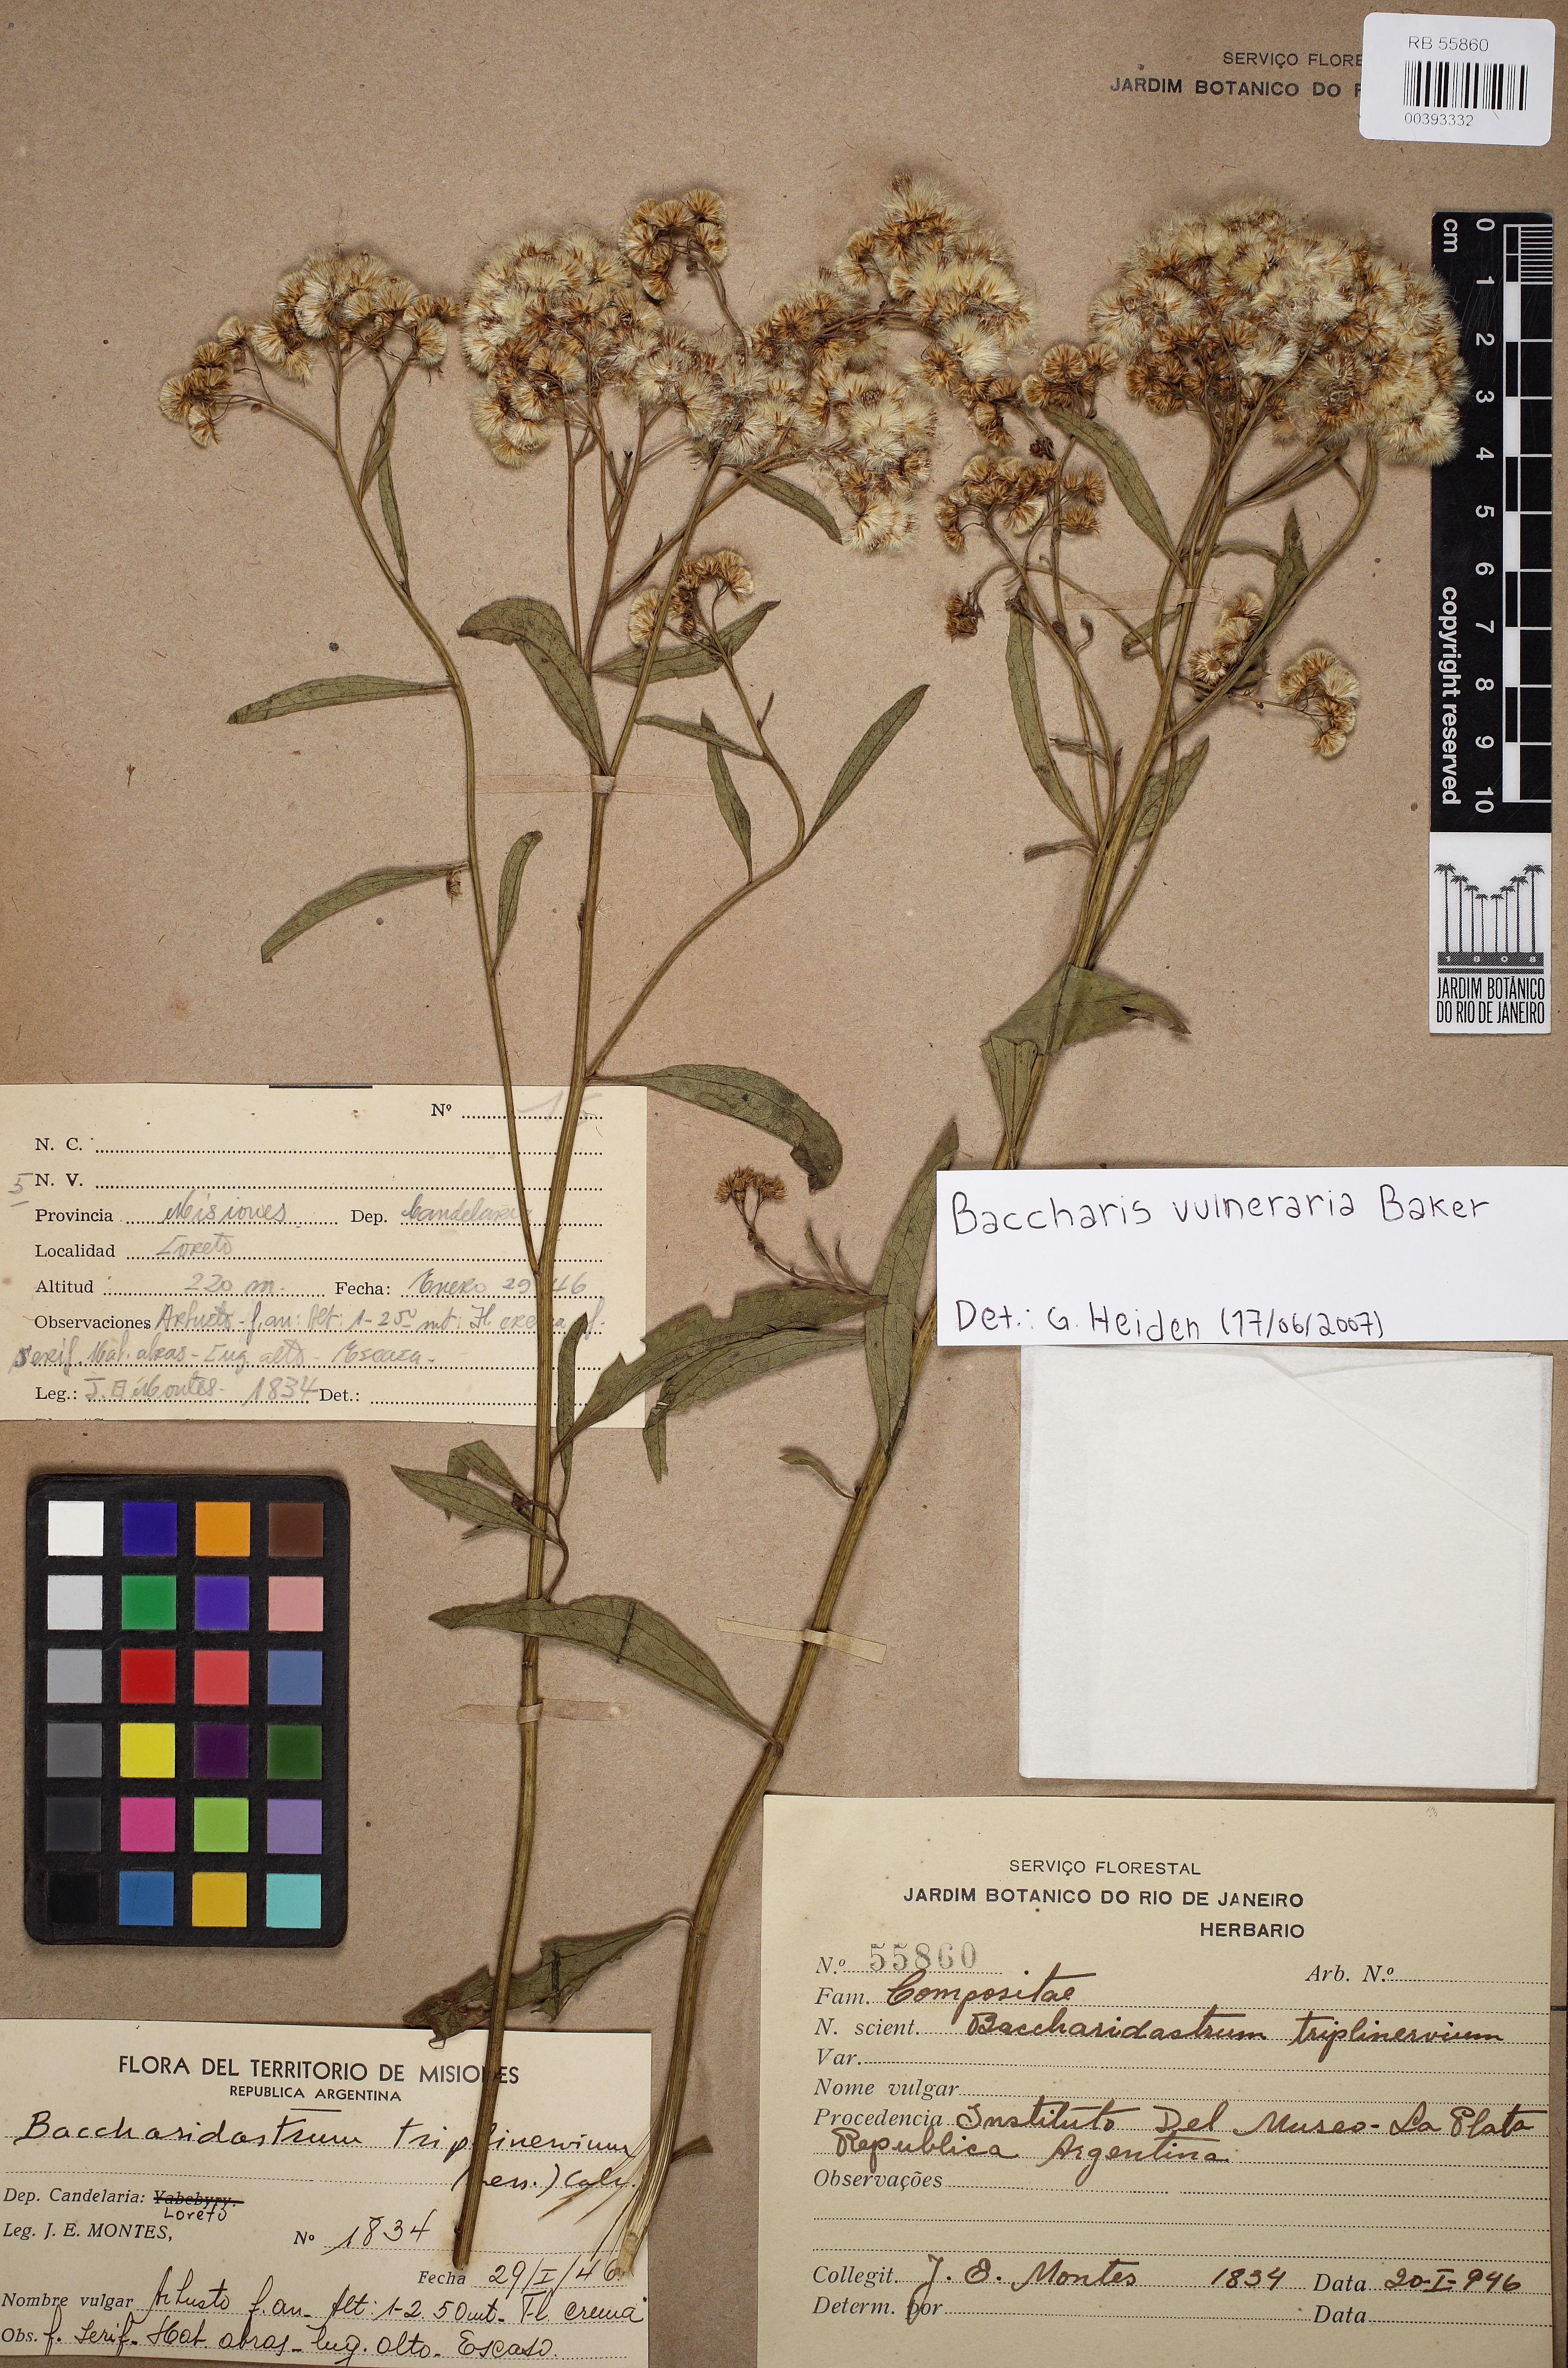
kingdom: Plantae
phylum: Tracheophyta
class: Magnoliopsida
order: Asterales
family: Asteraceae
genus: Archibaccharis
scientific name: Archibaccharis vulneraria
